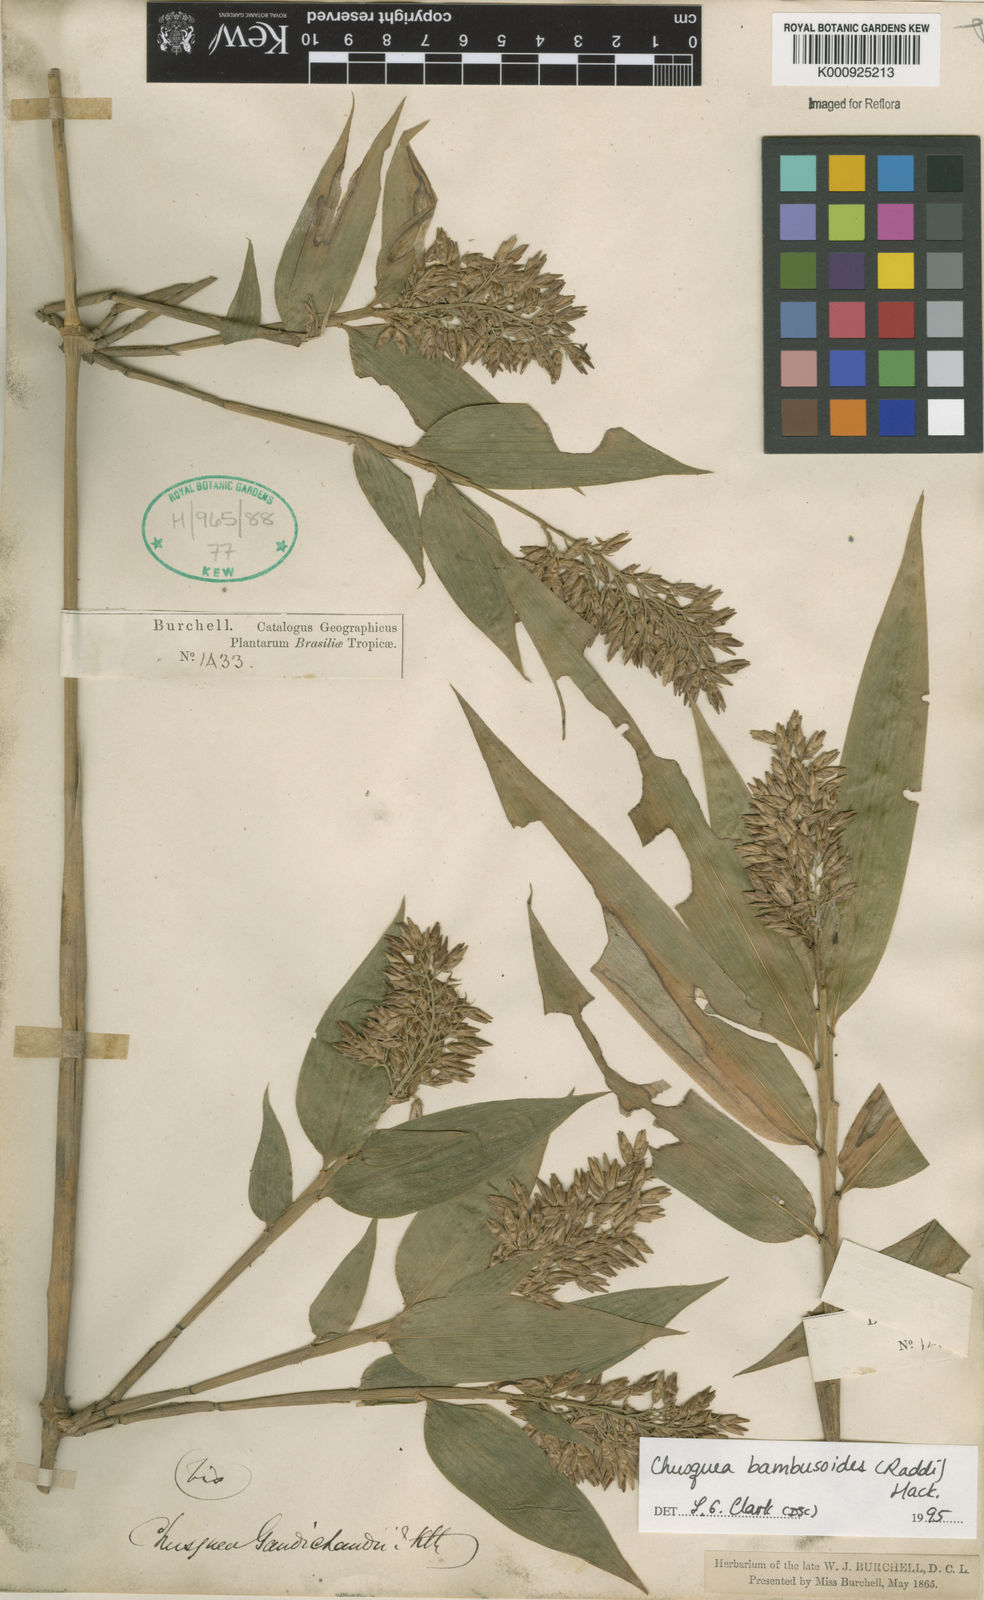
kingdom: Plantae
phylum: Tracheophyta
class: Liliopsida
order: Poales
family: Poaceae
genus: Chusquea
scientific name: Chusquea bambusoides
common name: Brazil scrambling bamboo
